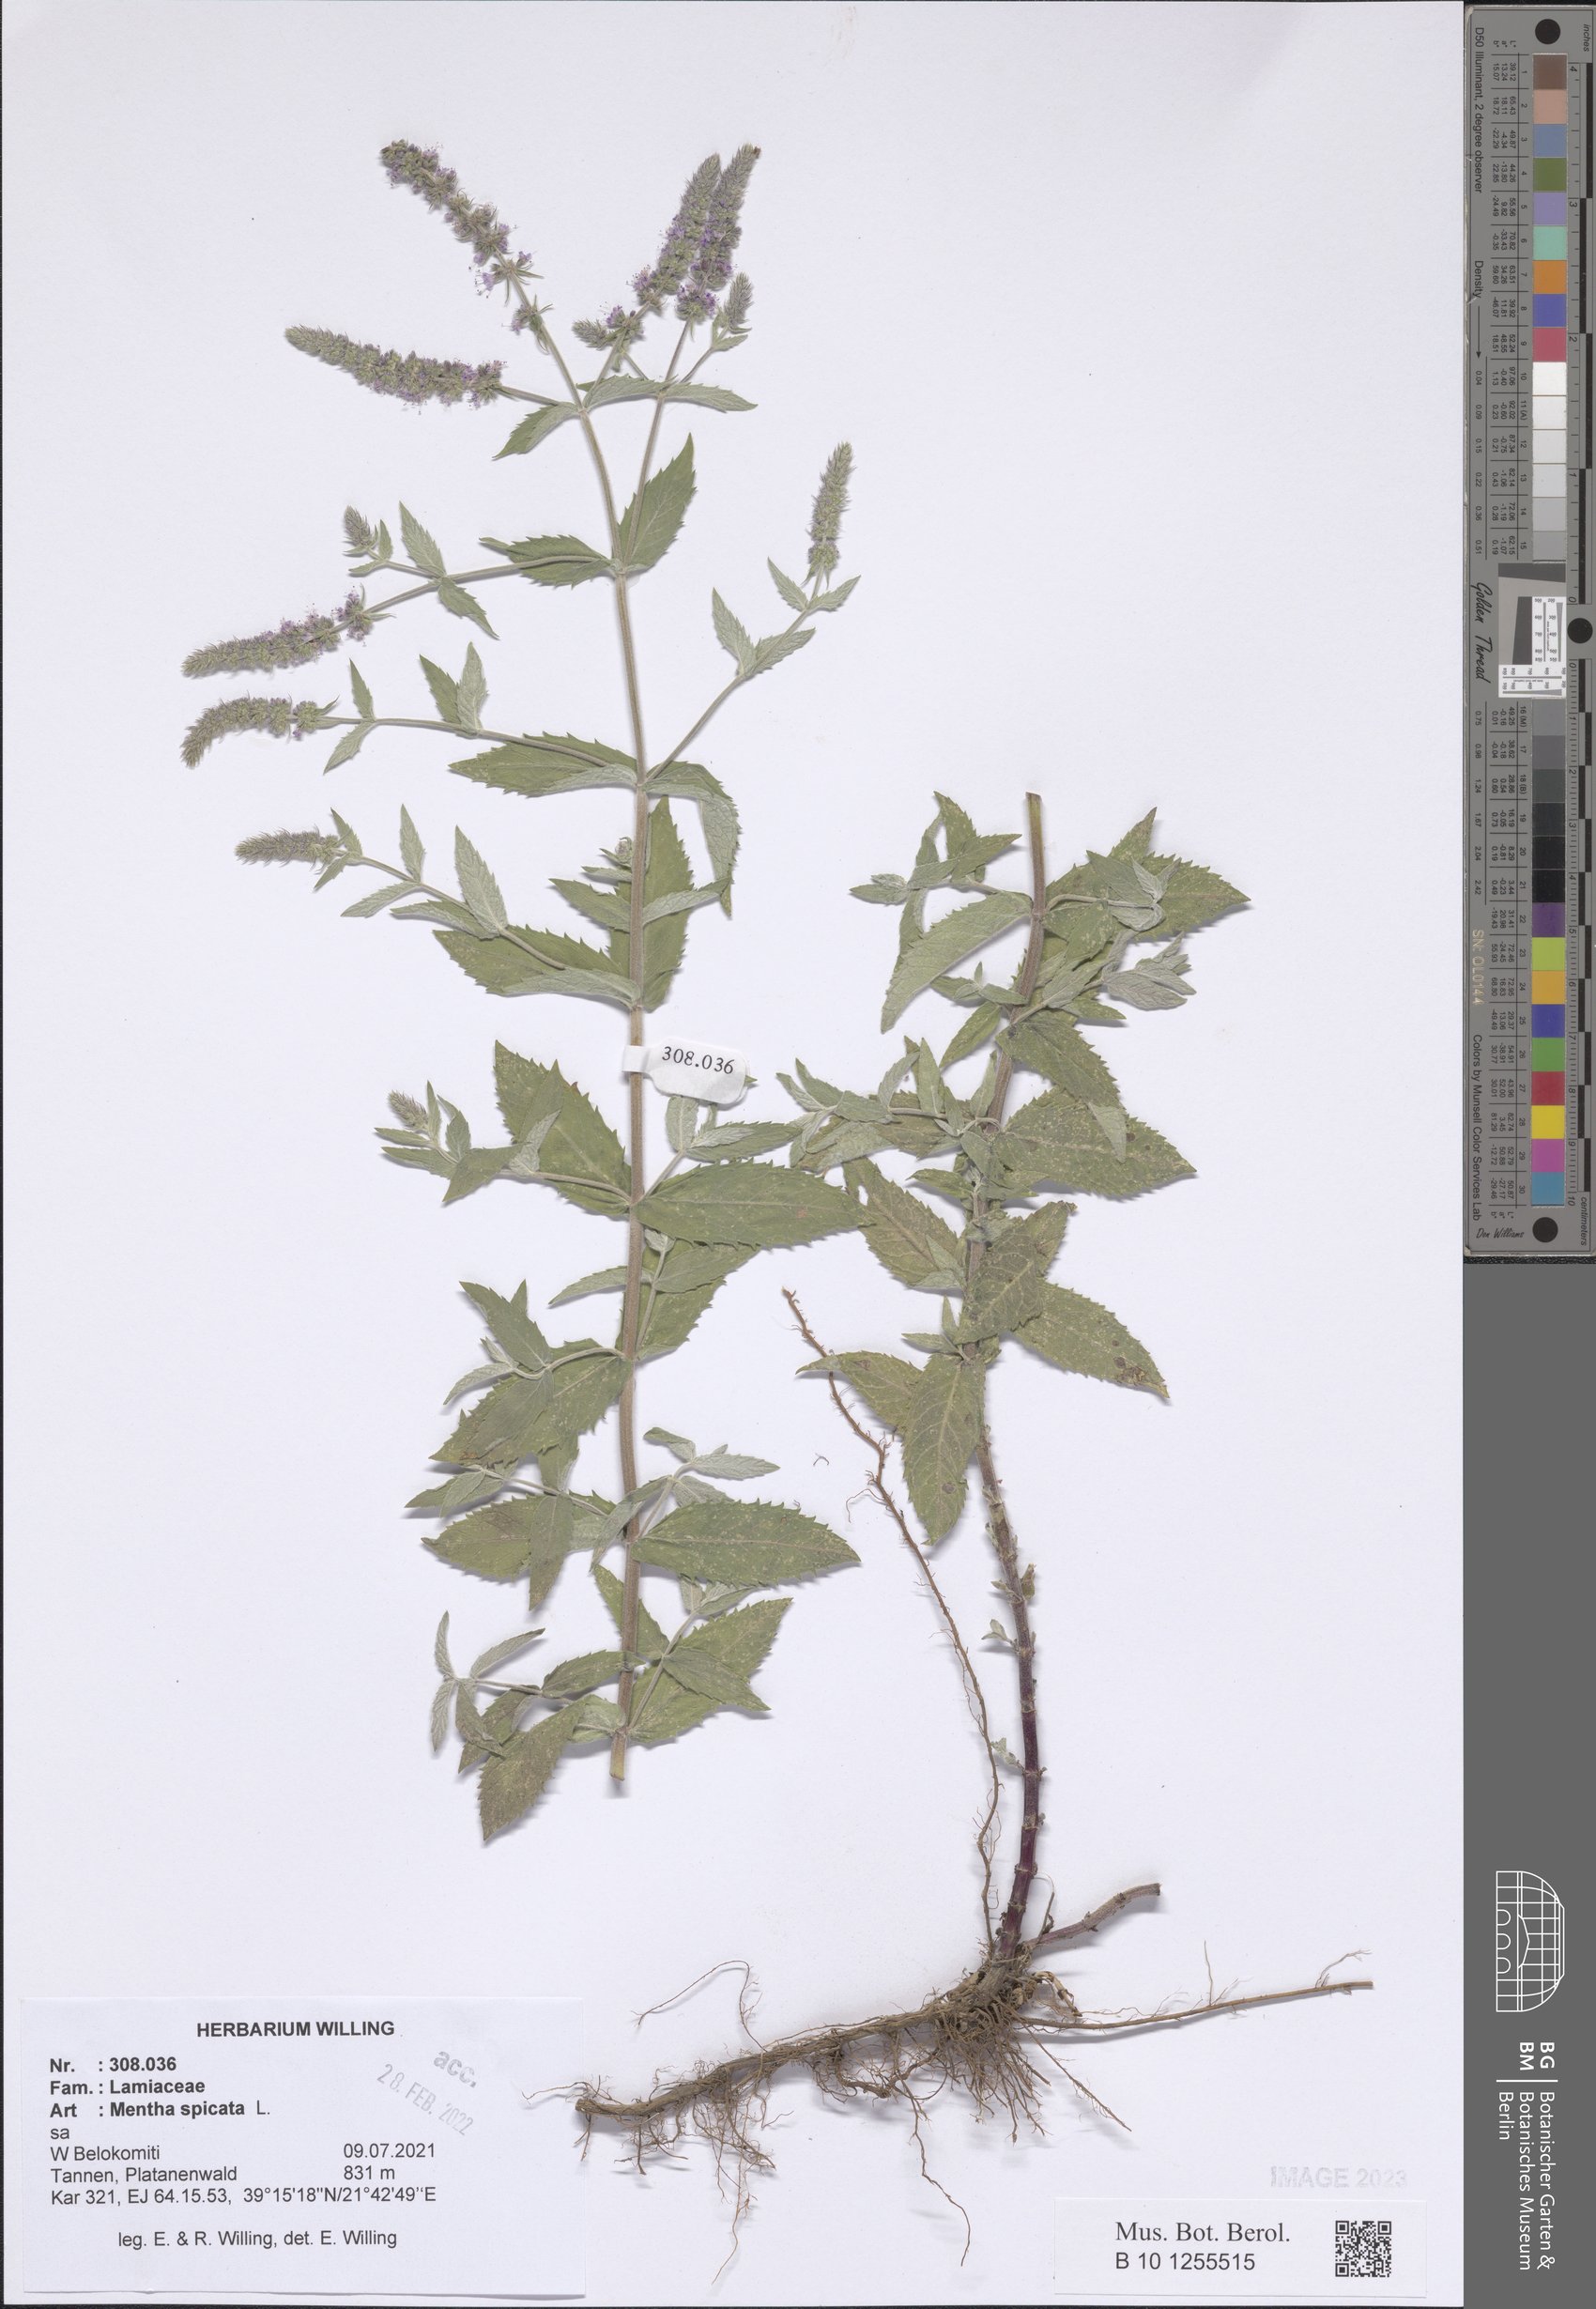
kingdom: Plantae
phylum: Tracheophyta
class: Magnoliopsida
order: Lamiales
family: Lamiaceae
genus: Mentha
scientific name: Mentha spicata
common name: Spearmint
